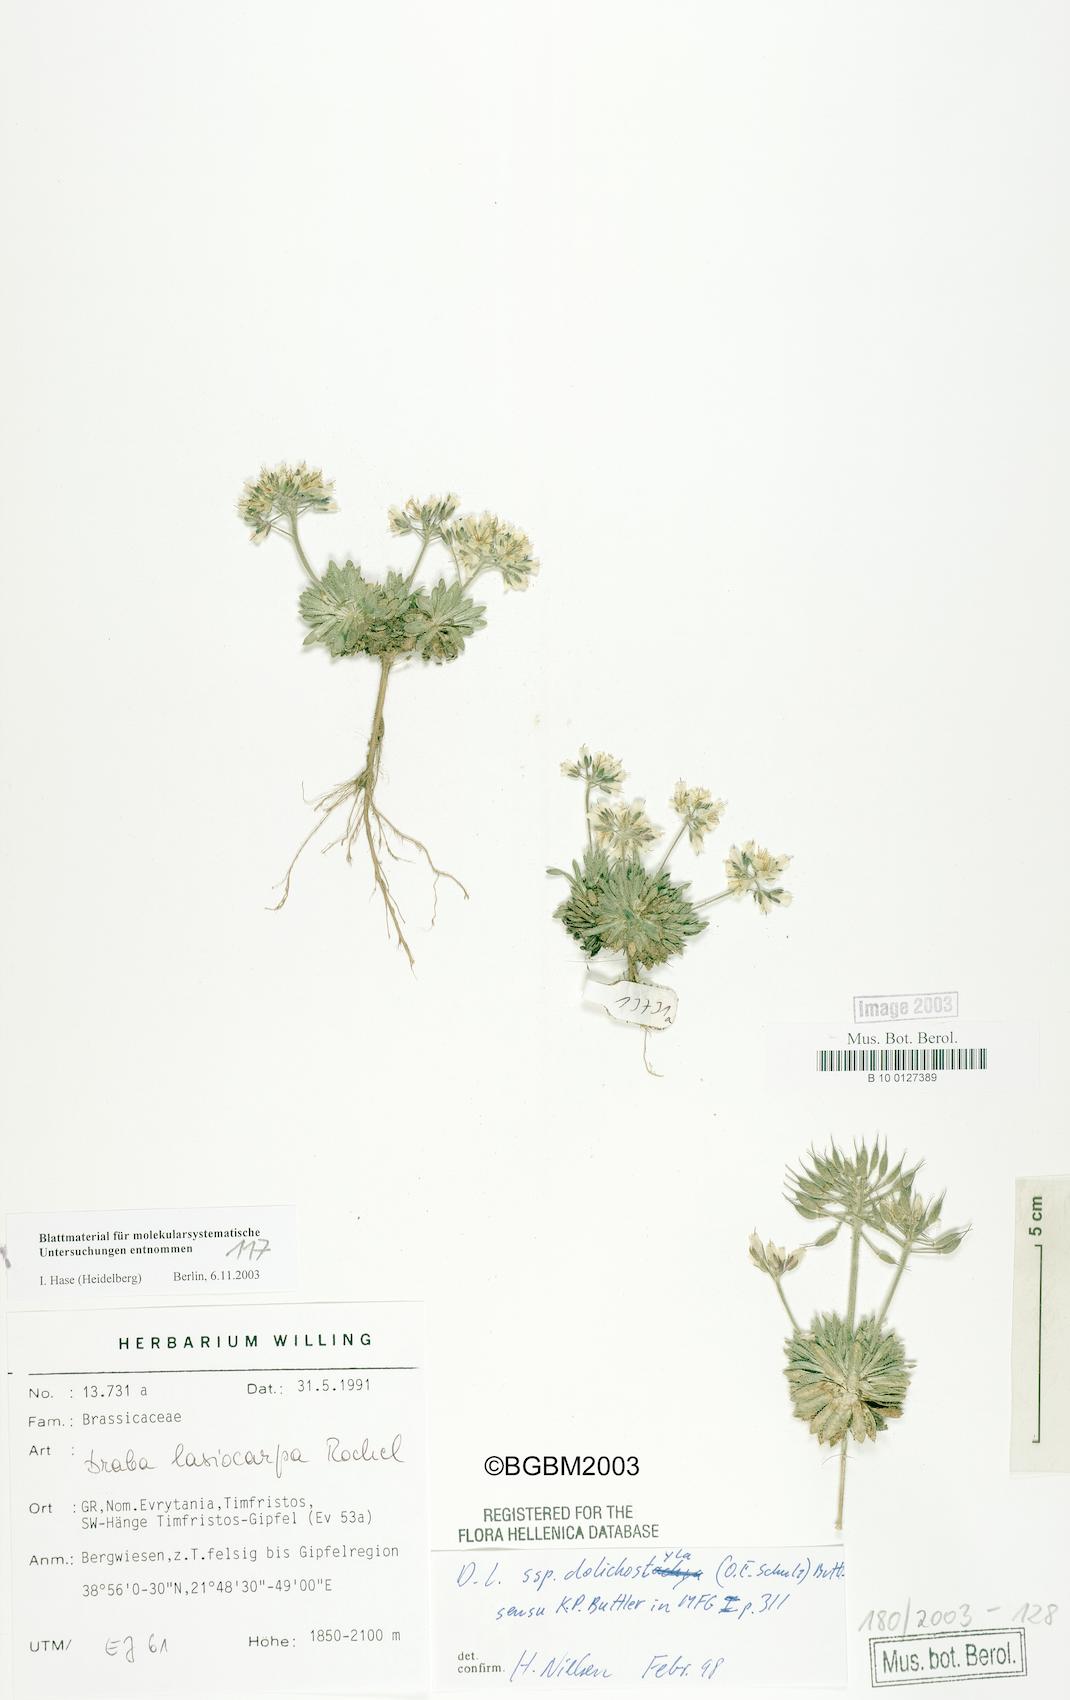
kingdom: Plantae
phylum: Tracheophyta
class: Magnoliopsida
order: Brassicales
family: Brassicaceae
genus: Draba
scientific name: Draba lasiocarpa
